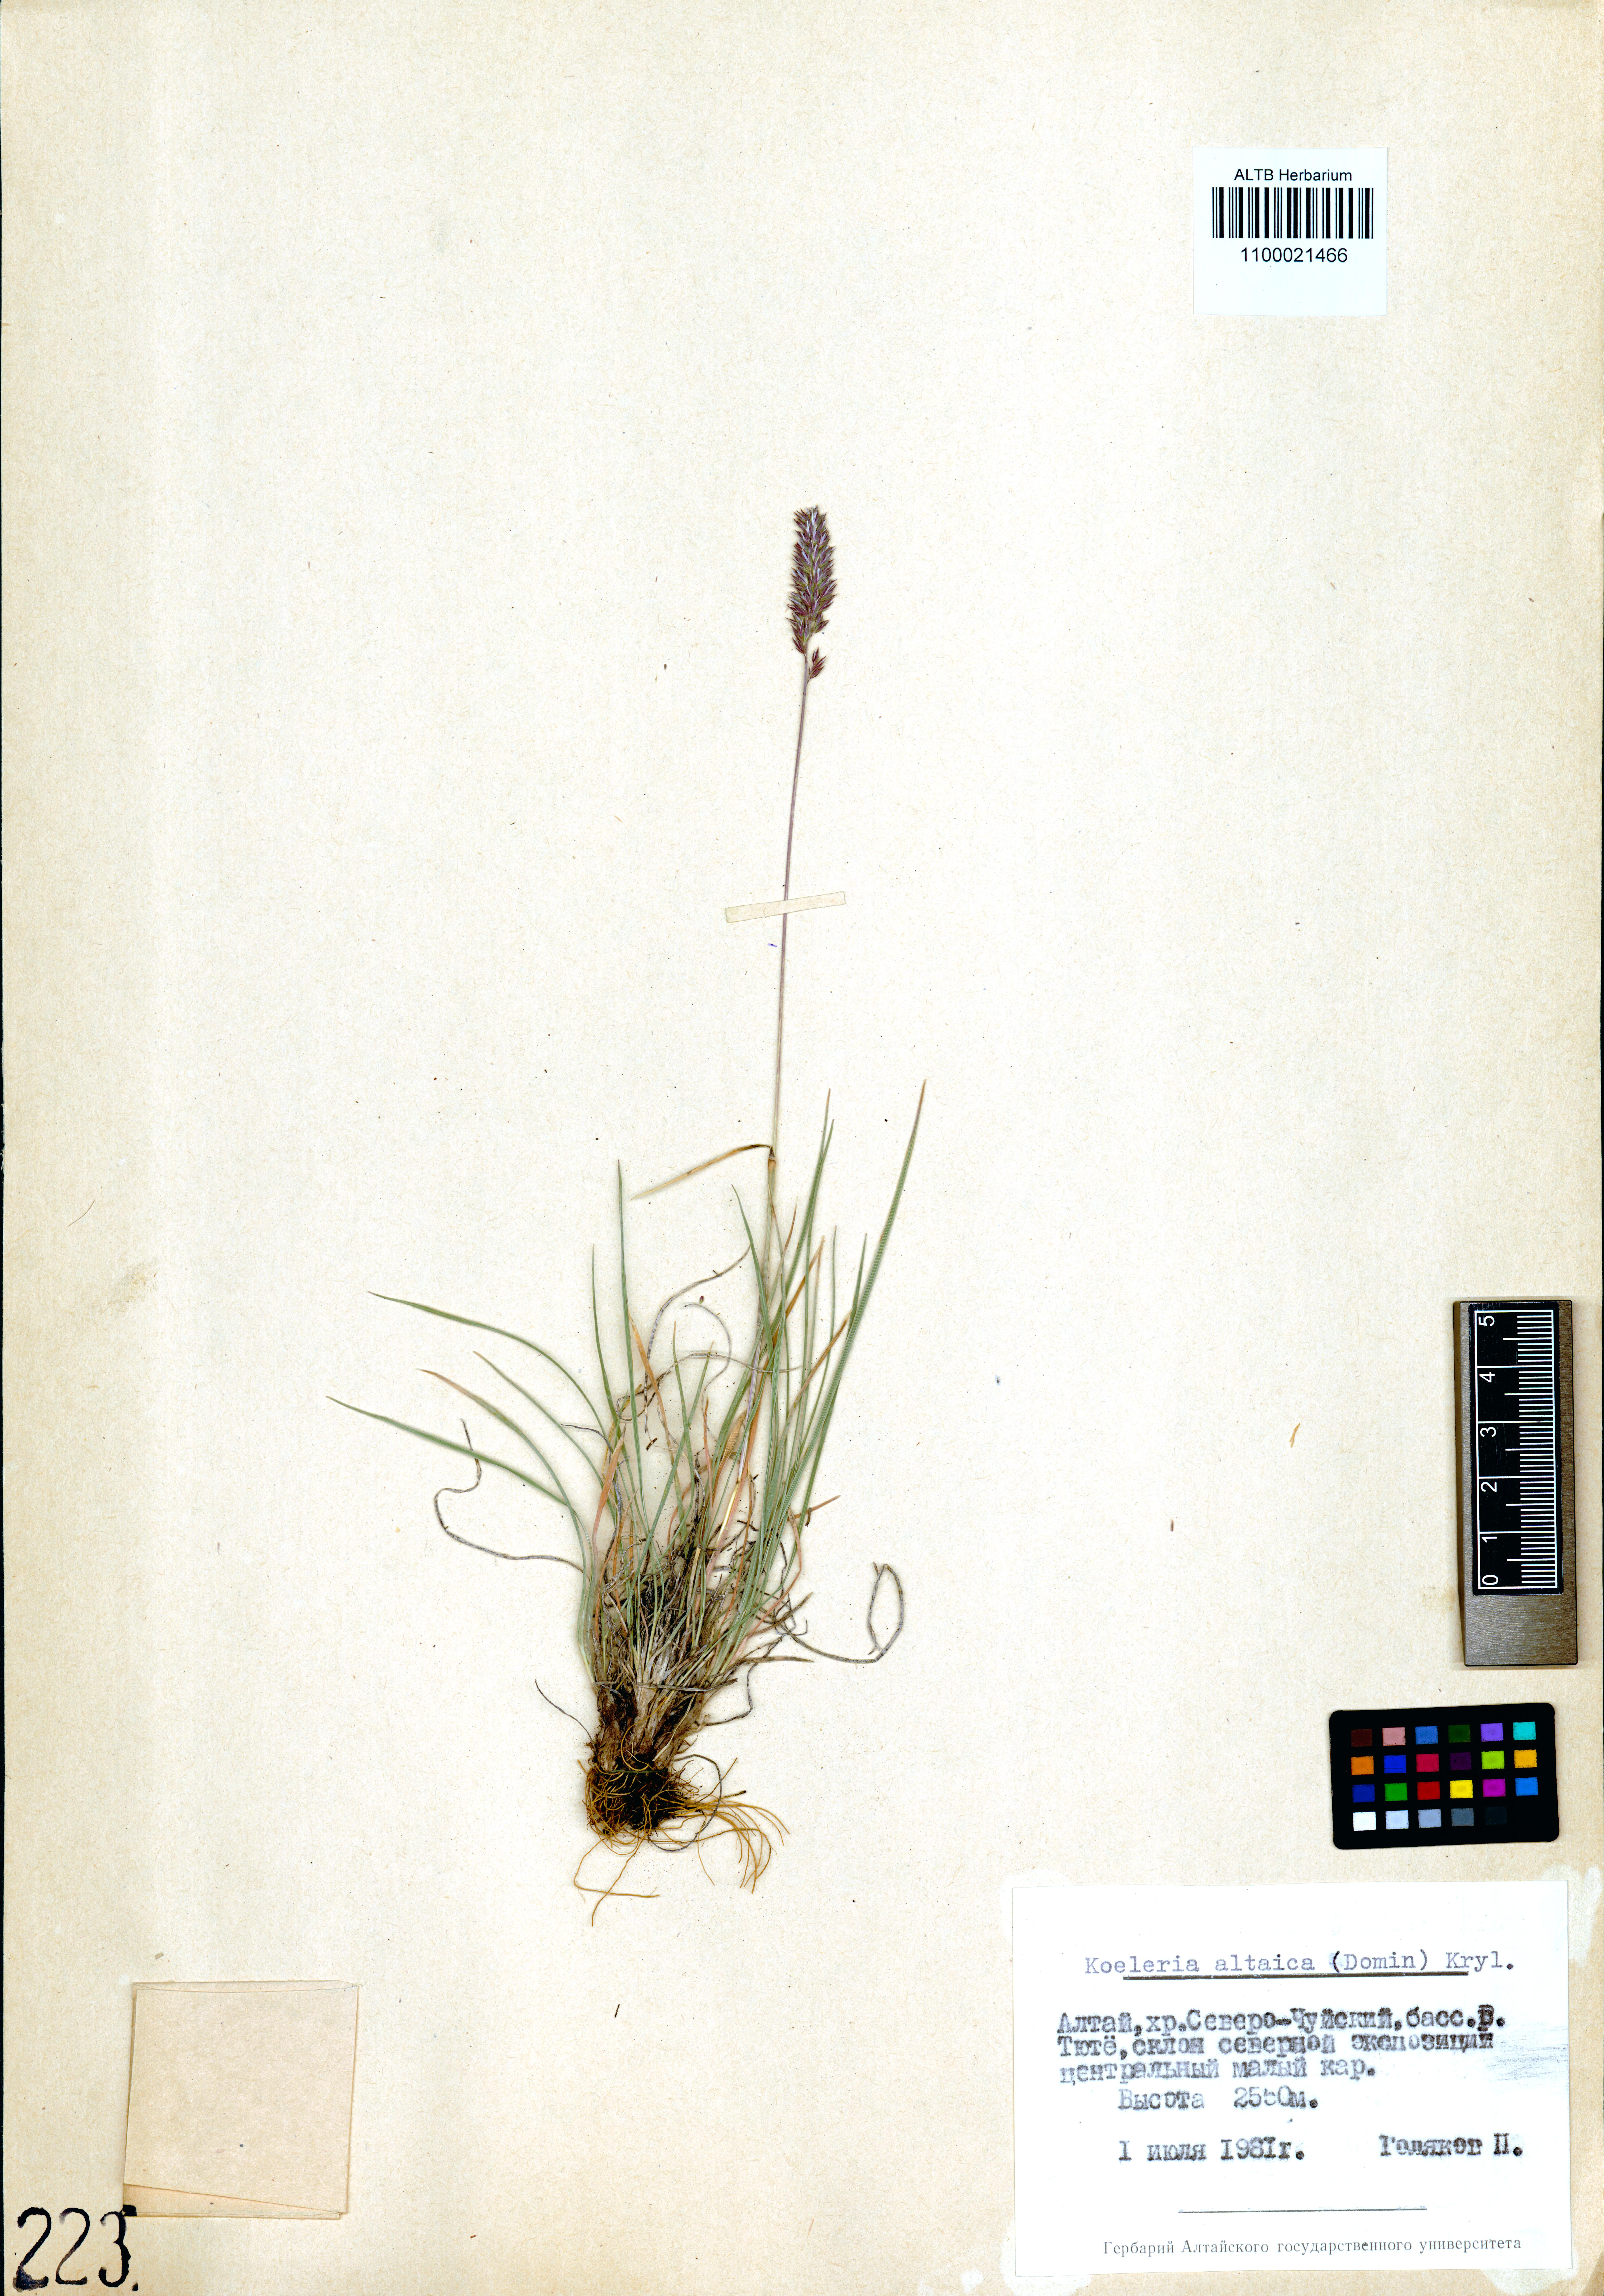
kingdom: Plantae
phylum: Tracheophyta
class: Liliopsida
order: Poales
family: Poaceae
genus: Koeleria
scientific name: Koeleria altaica
